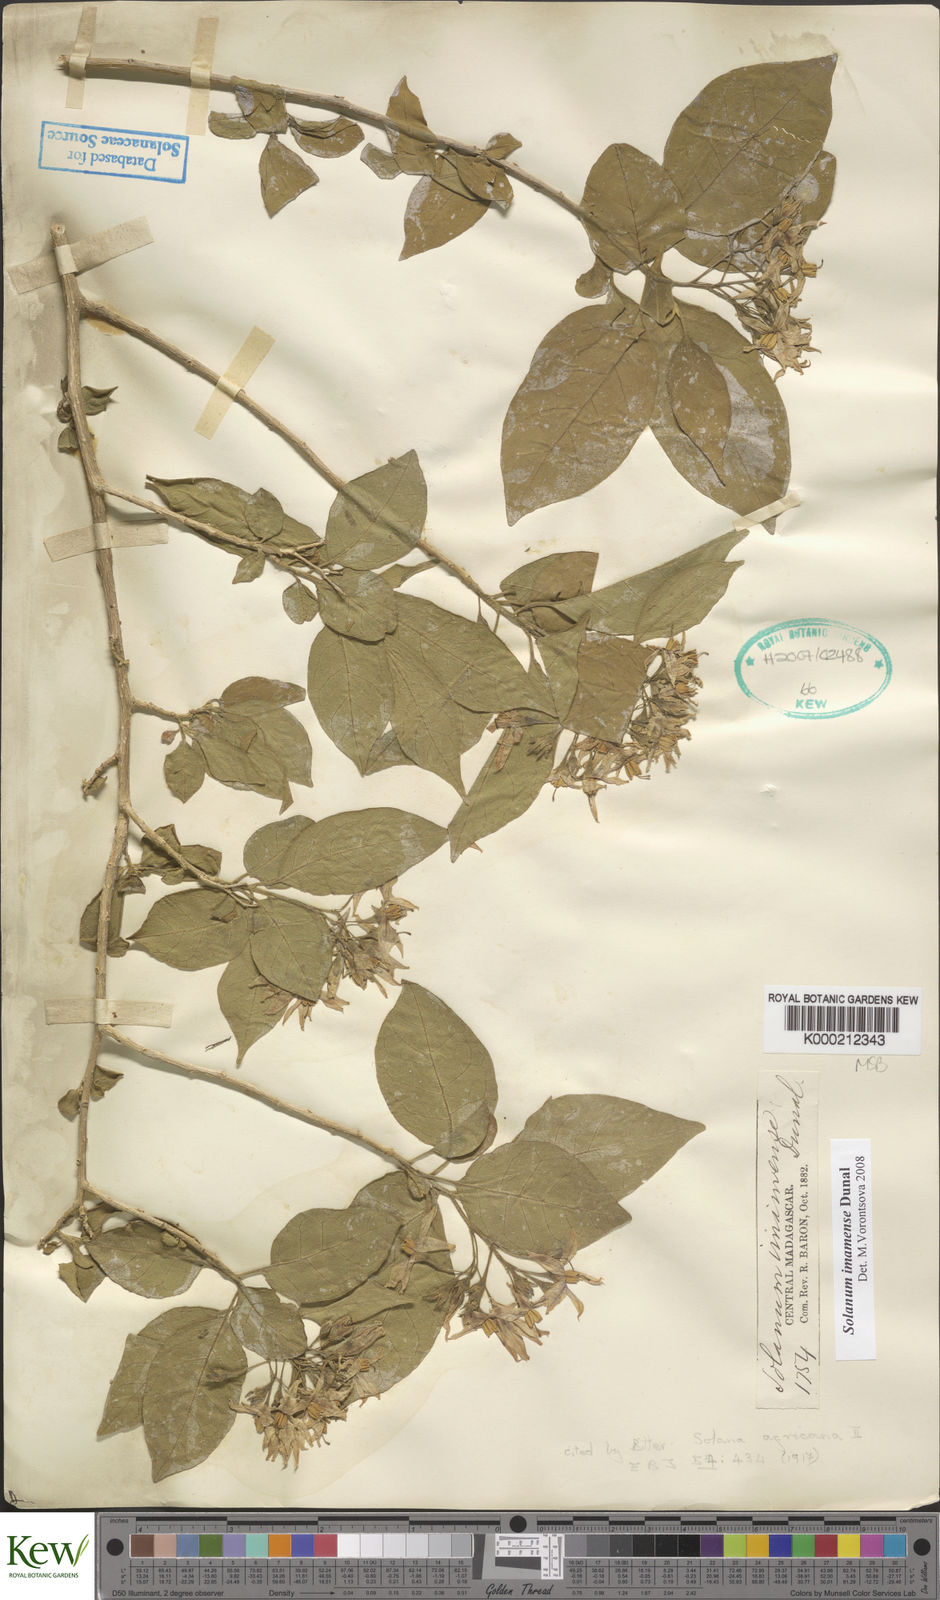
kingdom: Plantae
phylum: Tracheophyta
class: Magnoliopsida
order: Solanales
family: Solanaceae
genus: Solanum
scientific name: Solanum imamense
